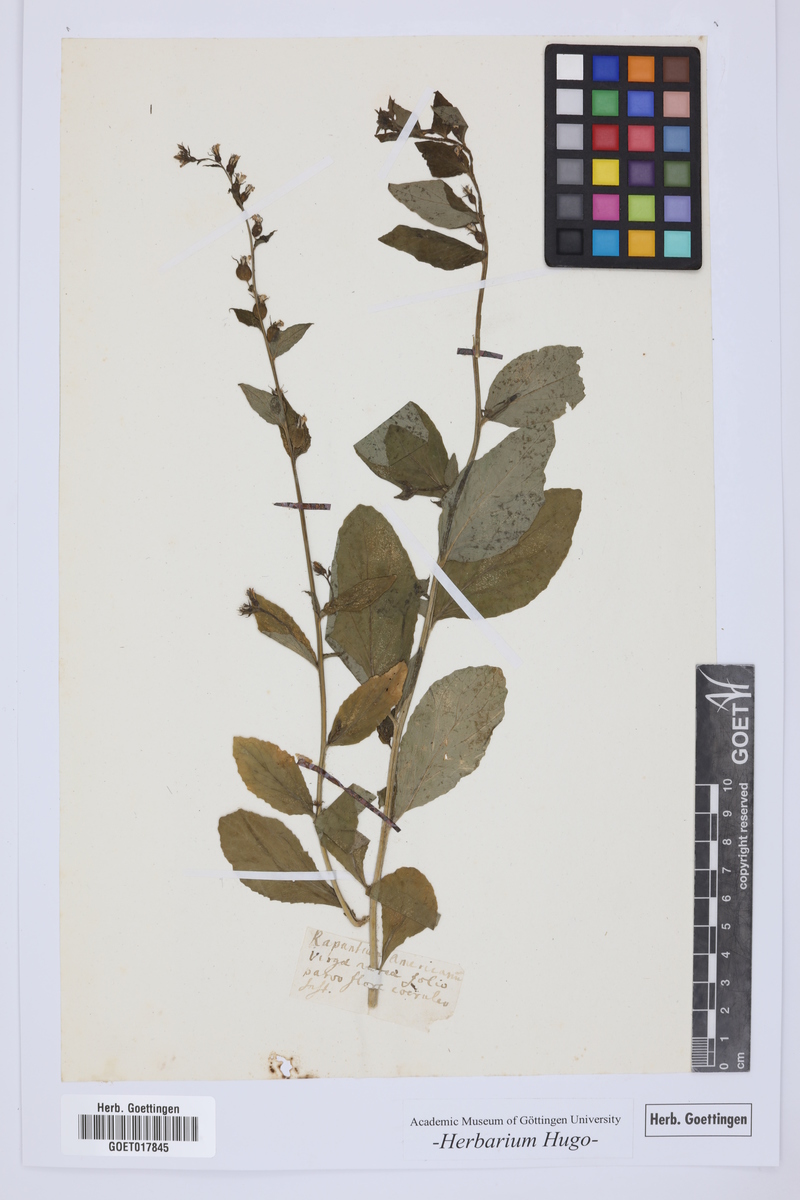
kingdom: Plantae
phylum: Tracheophyta
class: Magnoliopsida
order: Asterales
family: Campanulaceae
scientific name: Campanulaceae
